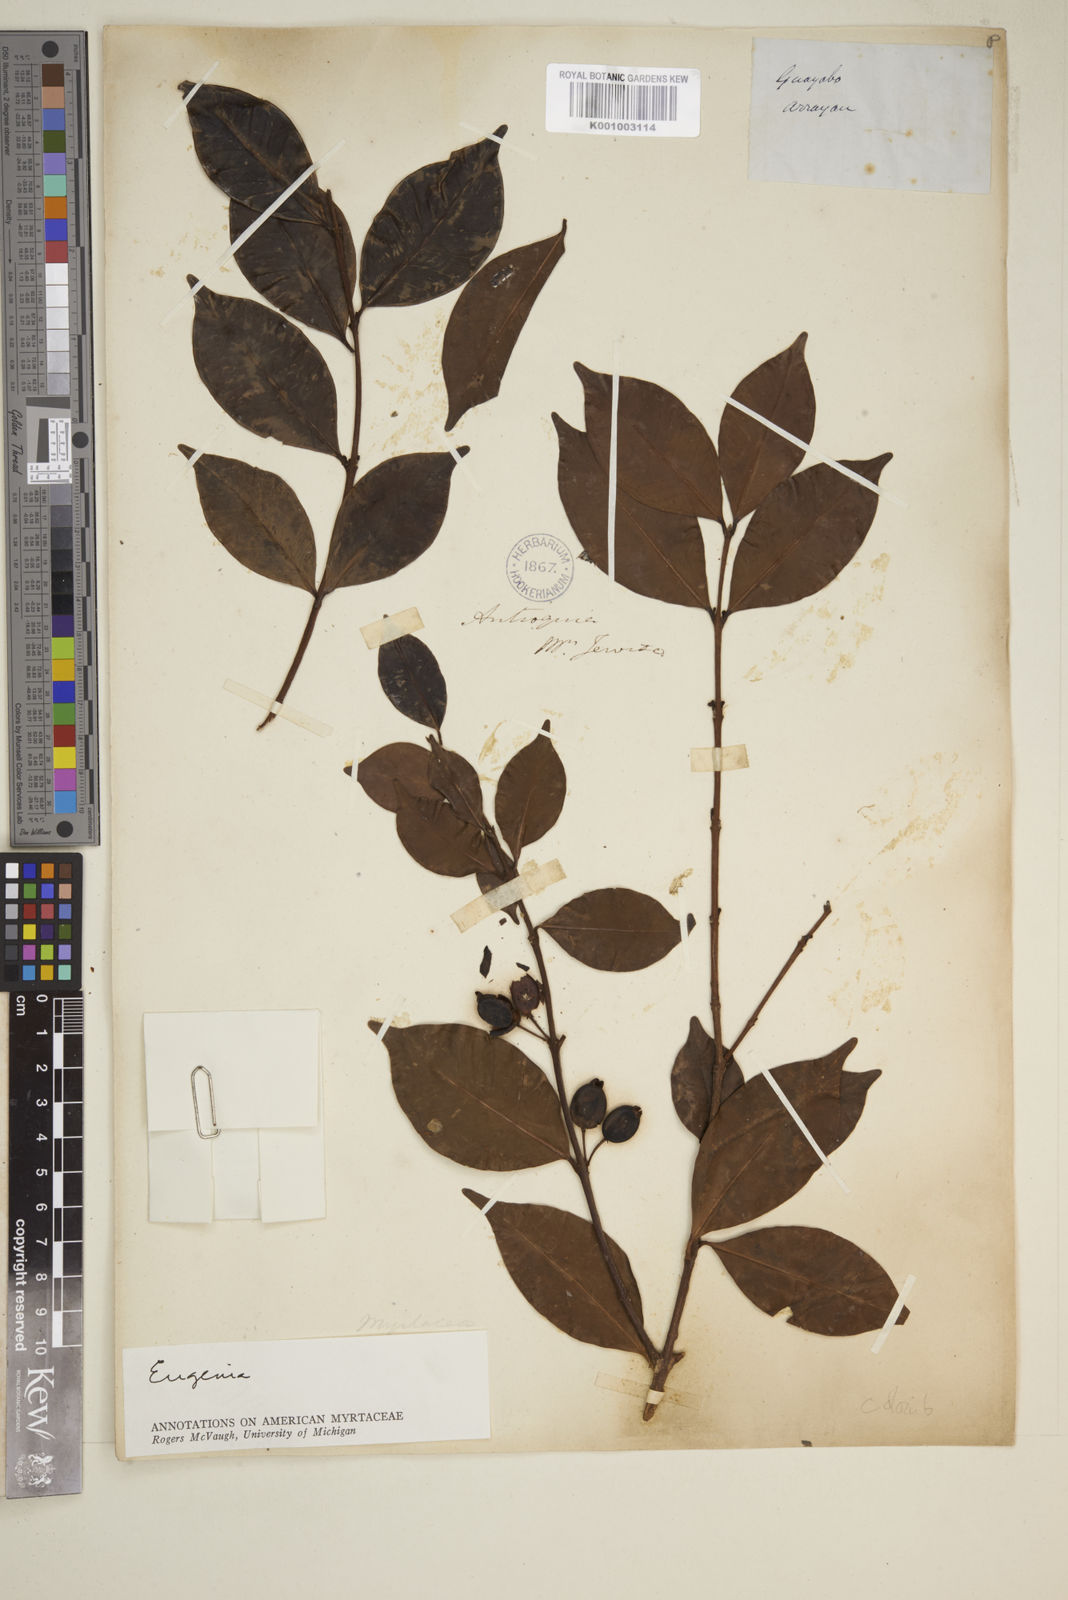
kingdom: Plantae
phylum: Tracheophyta
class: Magnoliopsida
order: Myrtales
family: Myrtaceae
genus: Eugenia
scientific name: Eugenia
